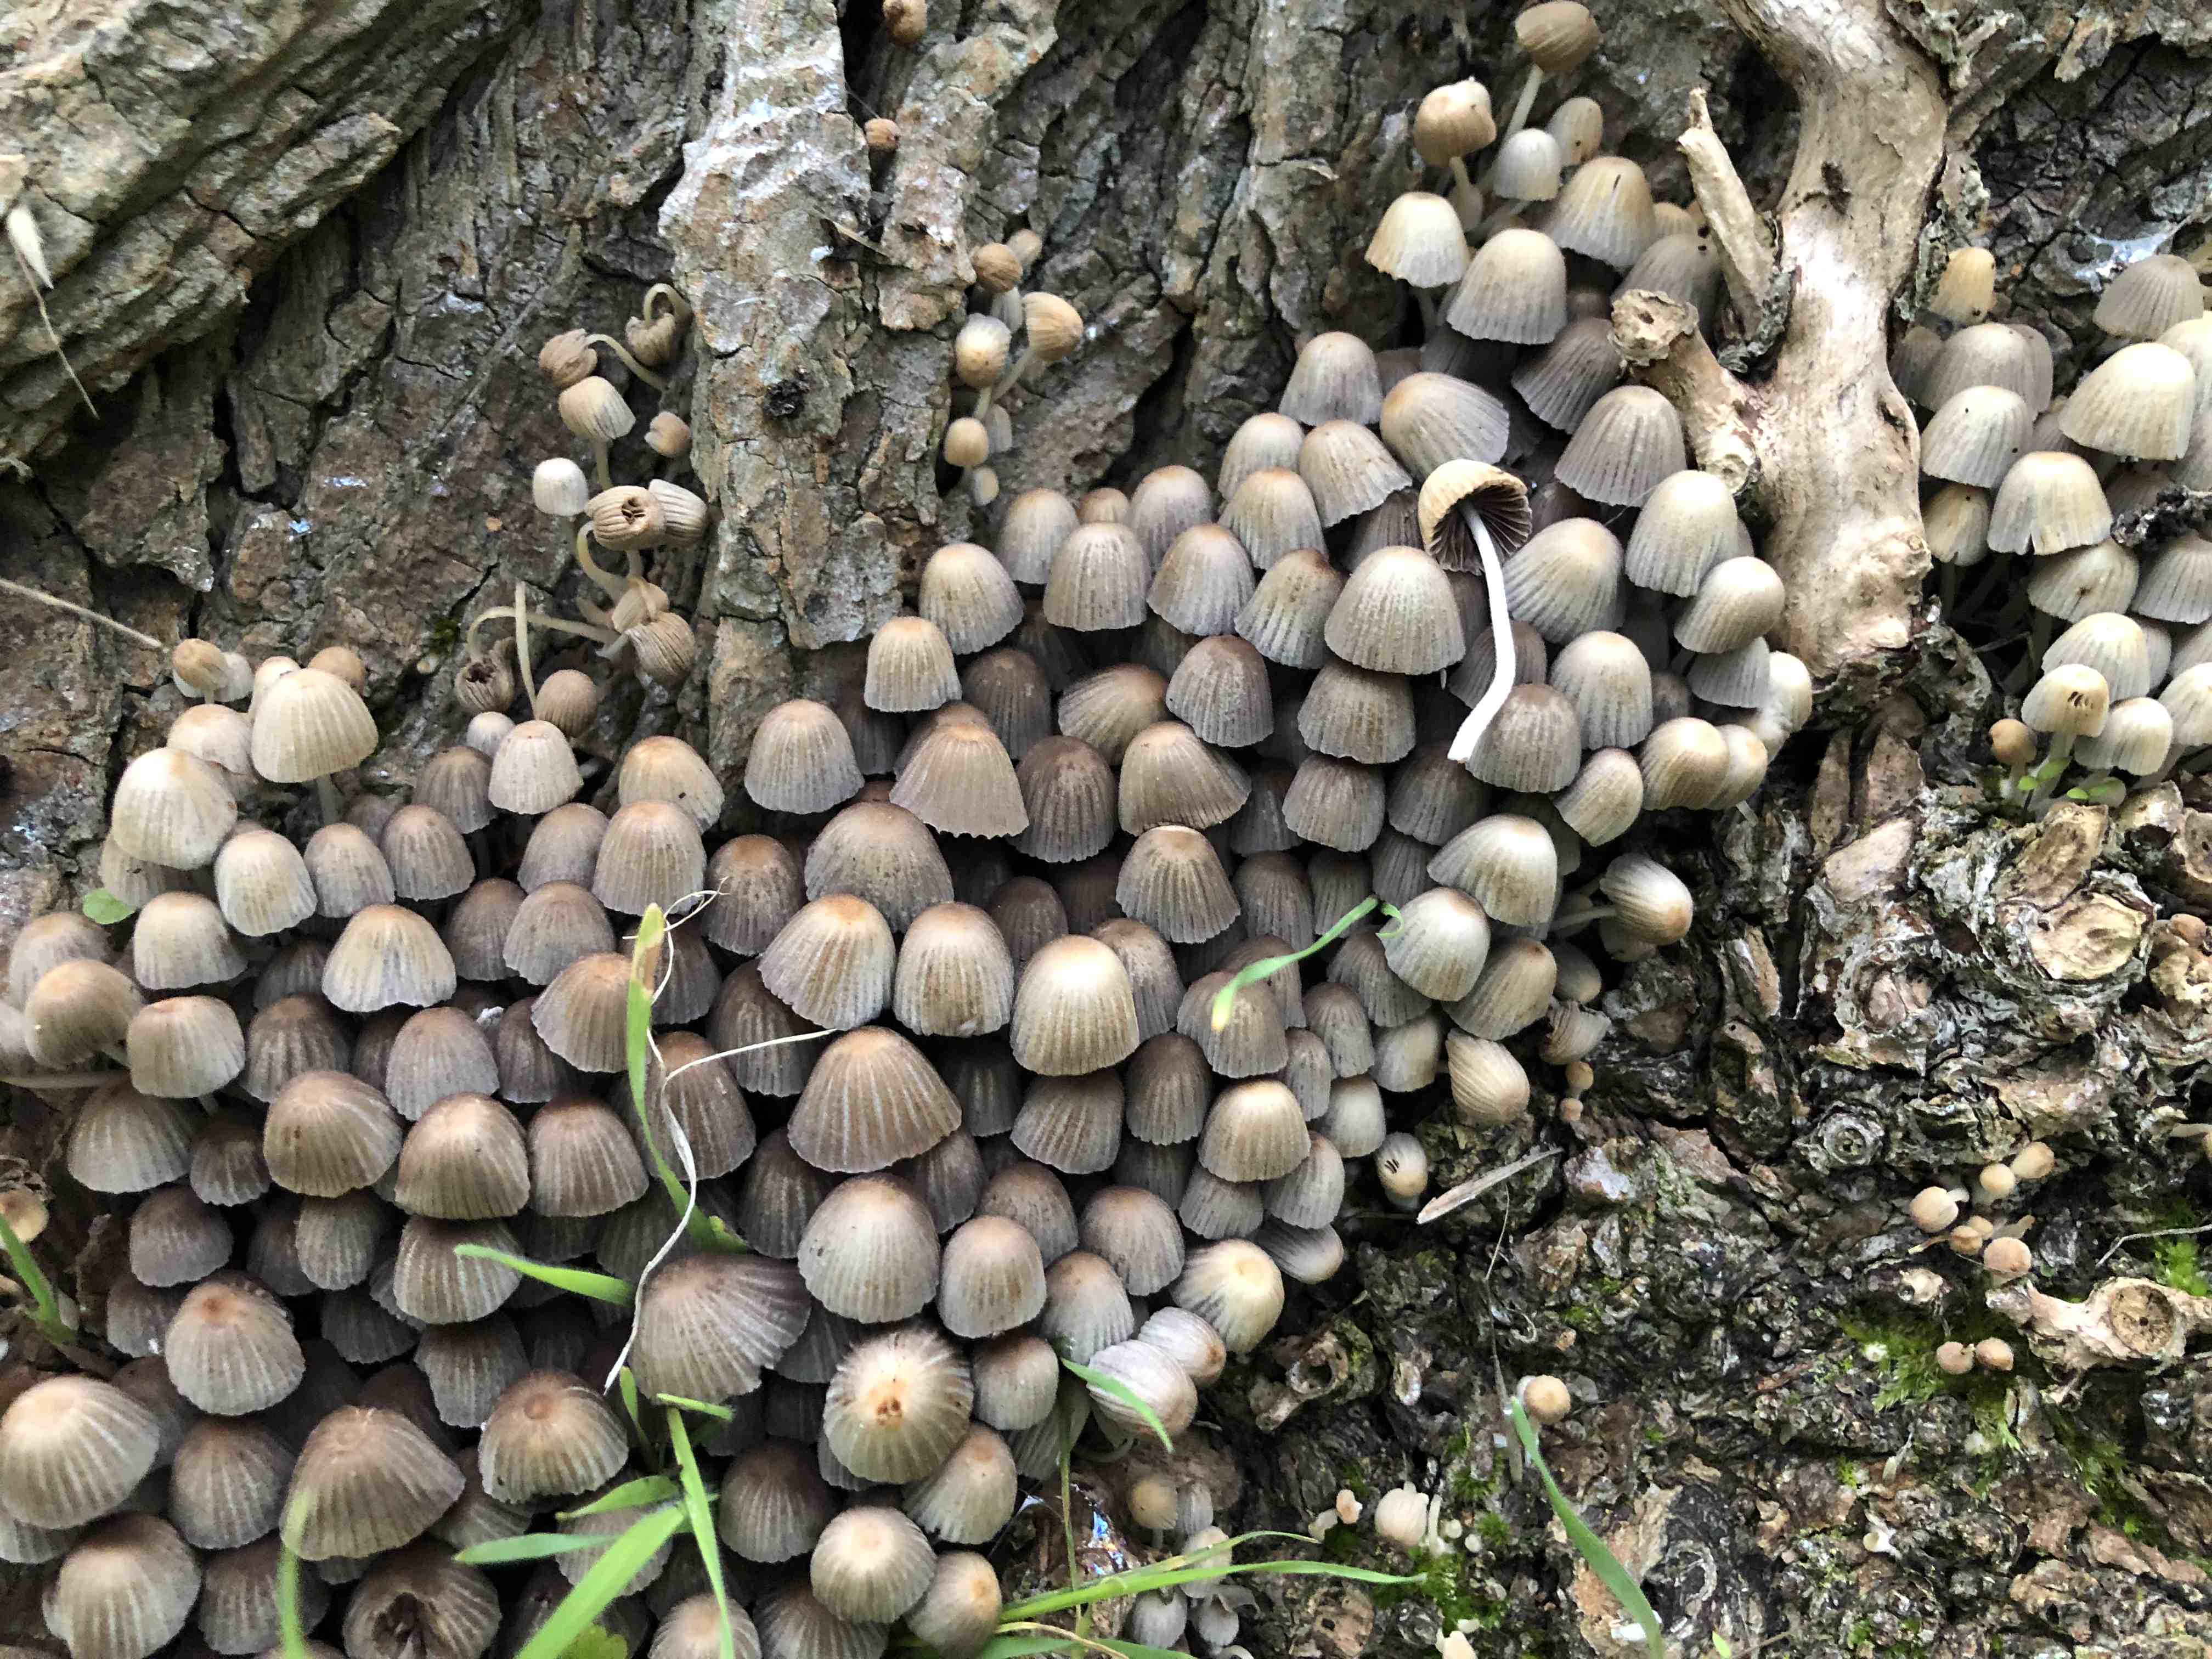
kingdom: Fungi
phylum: Basidiomycota
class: Agaricomycetes
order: Agaricales
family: Psathyrellaceae
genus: Coprinellus
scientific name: Coprinellus disseminatus
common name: bredsået blækhat
